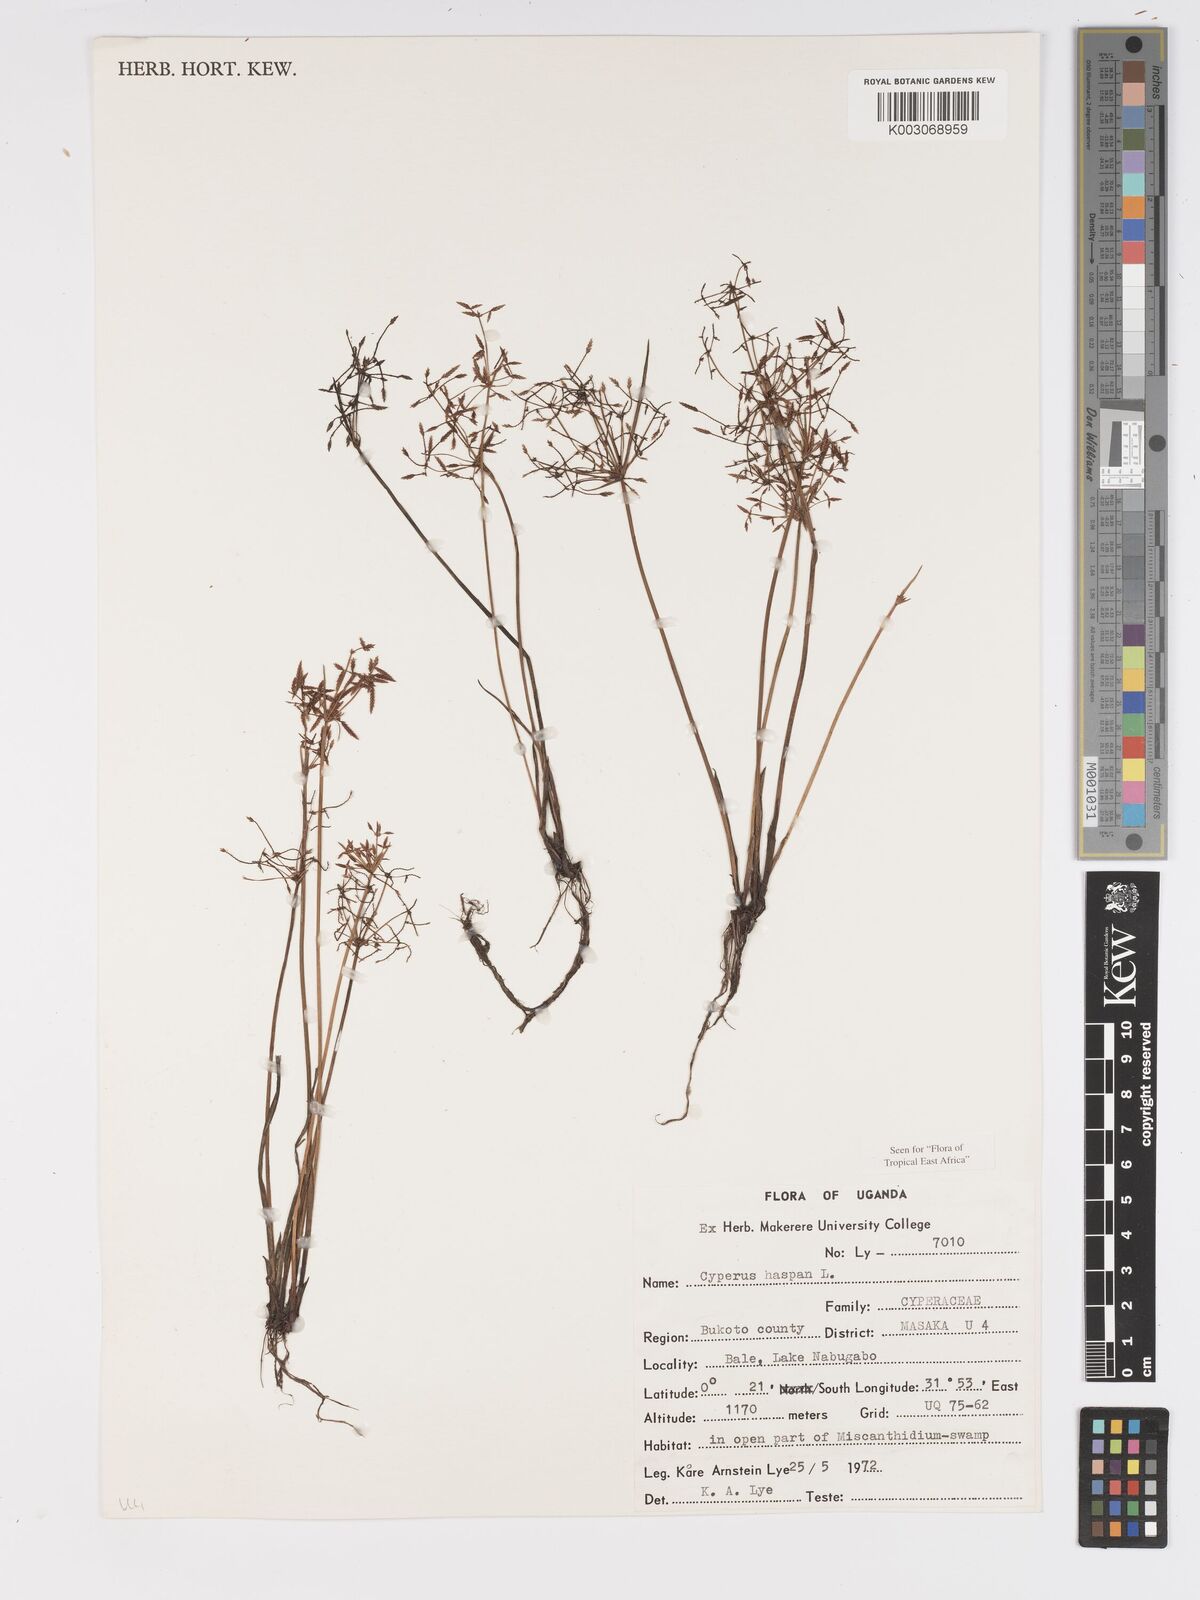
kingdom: Plantae
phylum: Tracheophyta
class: Liliopsida
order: Poales
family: Cyperaceae
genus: Cyperus
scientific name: Cyperus haspan
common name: Haspan flatsedge
